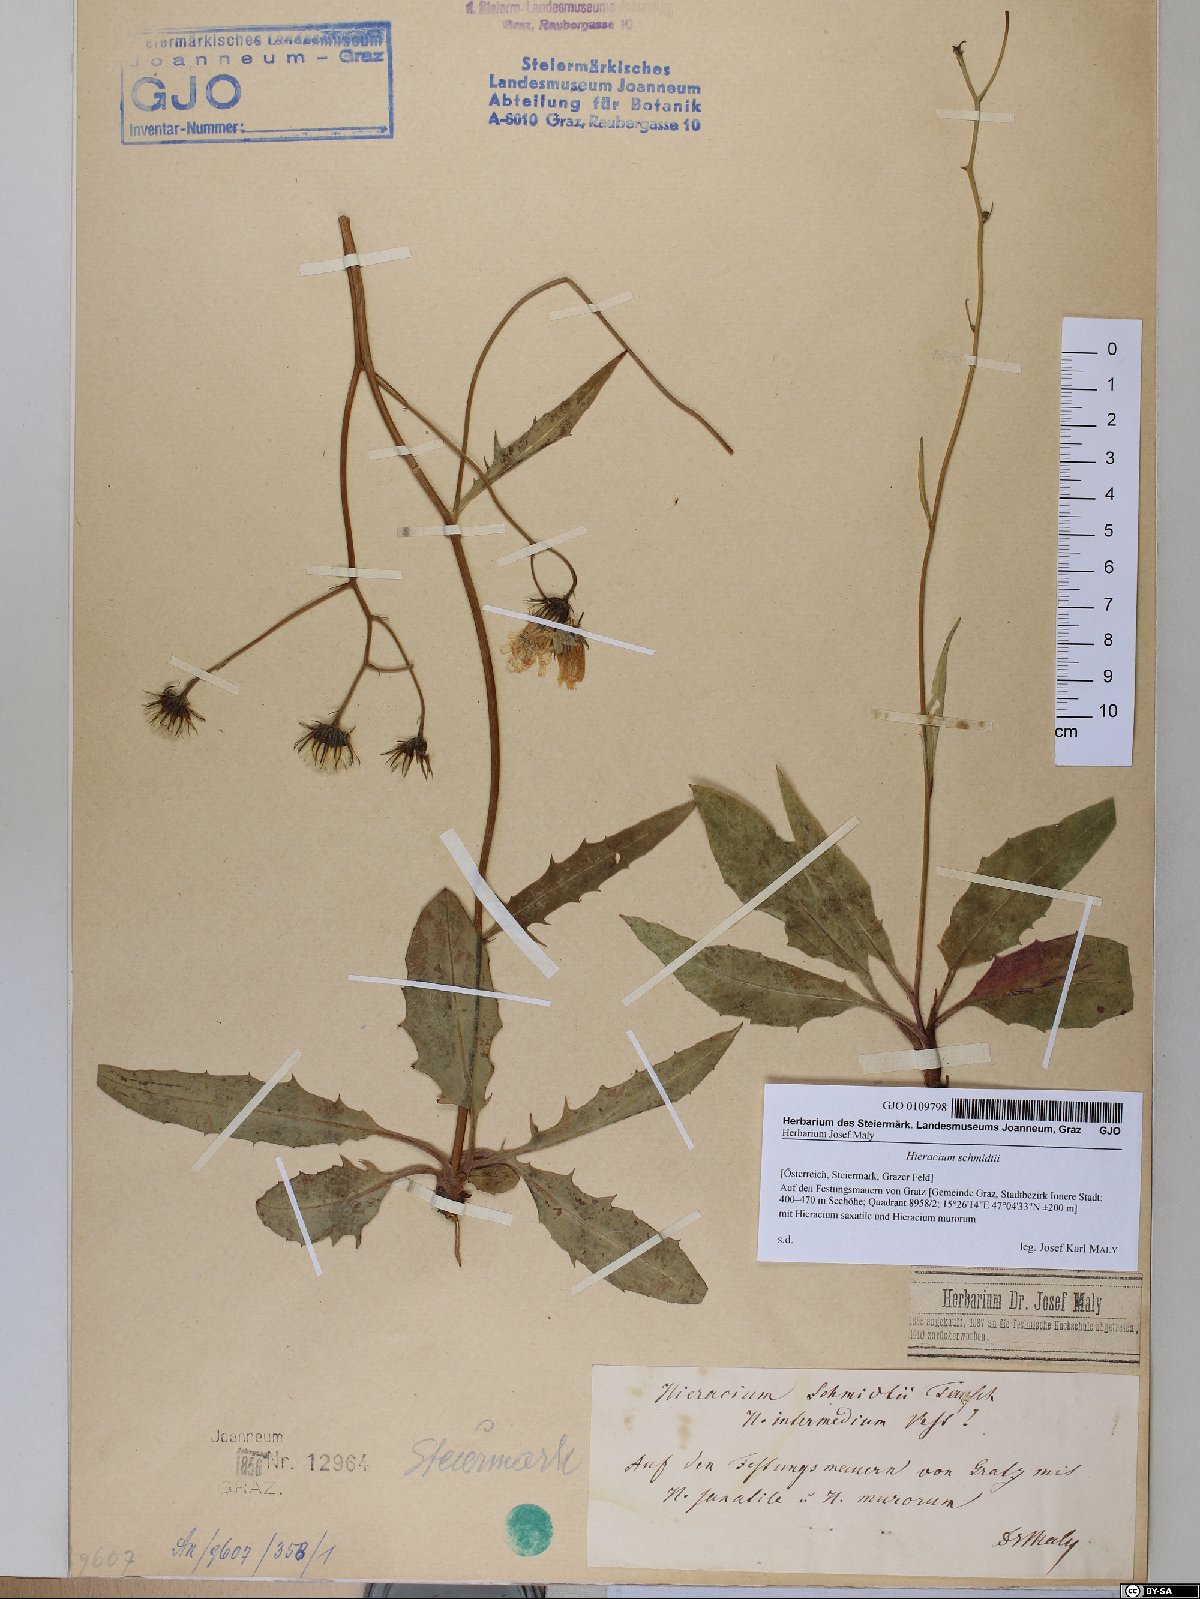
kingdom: Plantae
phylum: Tracheophyta
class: Magnoliopsida
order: Asterales
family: Asteraceae
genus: Hieracium
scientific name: Hieracium schmidtii
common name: Schmidt's hawkweed
